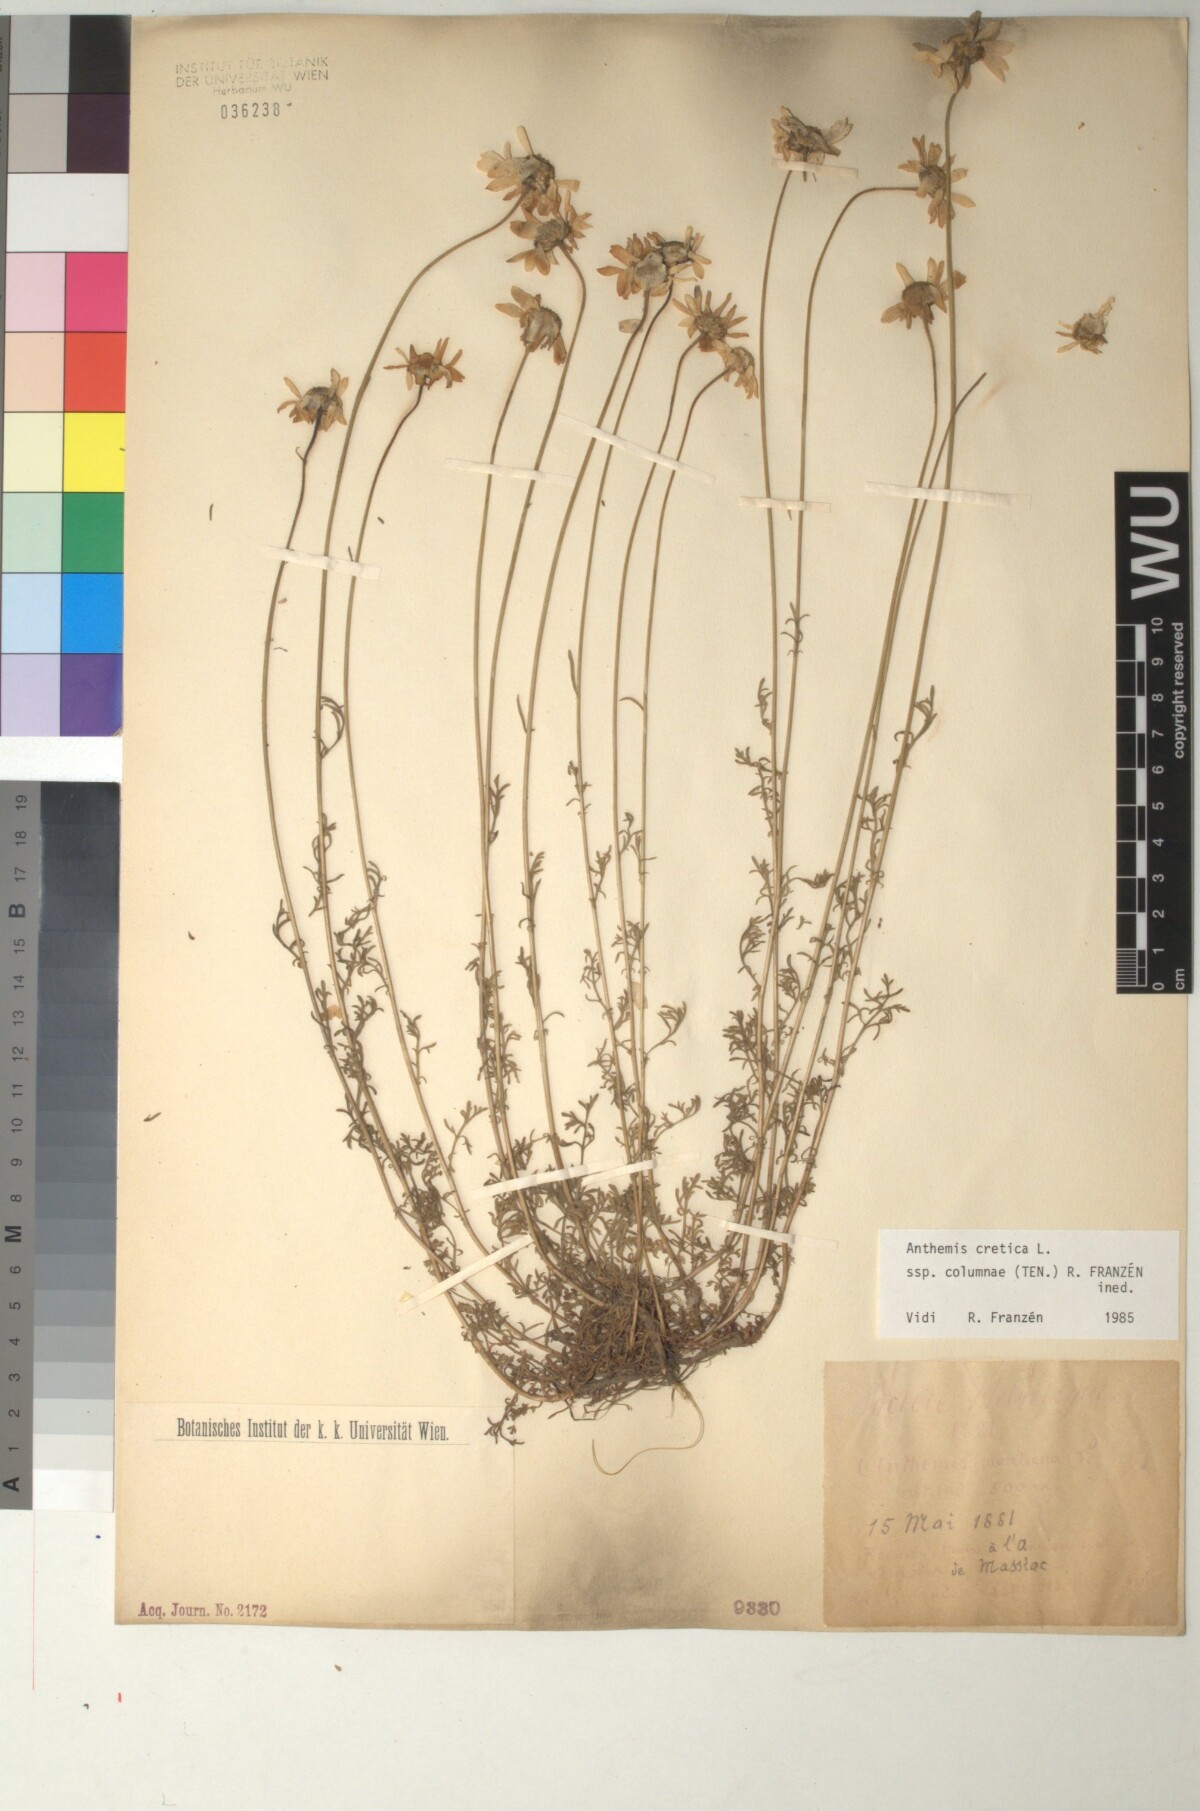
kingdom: Plantae
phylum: Tracheophyta
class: Magnoliopsida
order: Asterales
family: Asteraceae
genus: Anthemis
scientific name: Anthemis cretica
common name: Mountain dog-daisy
